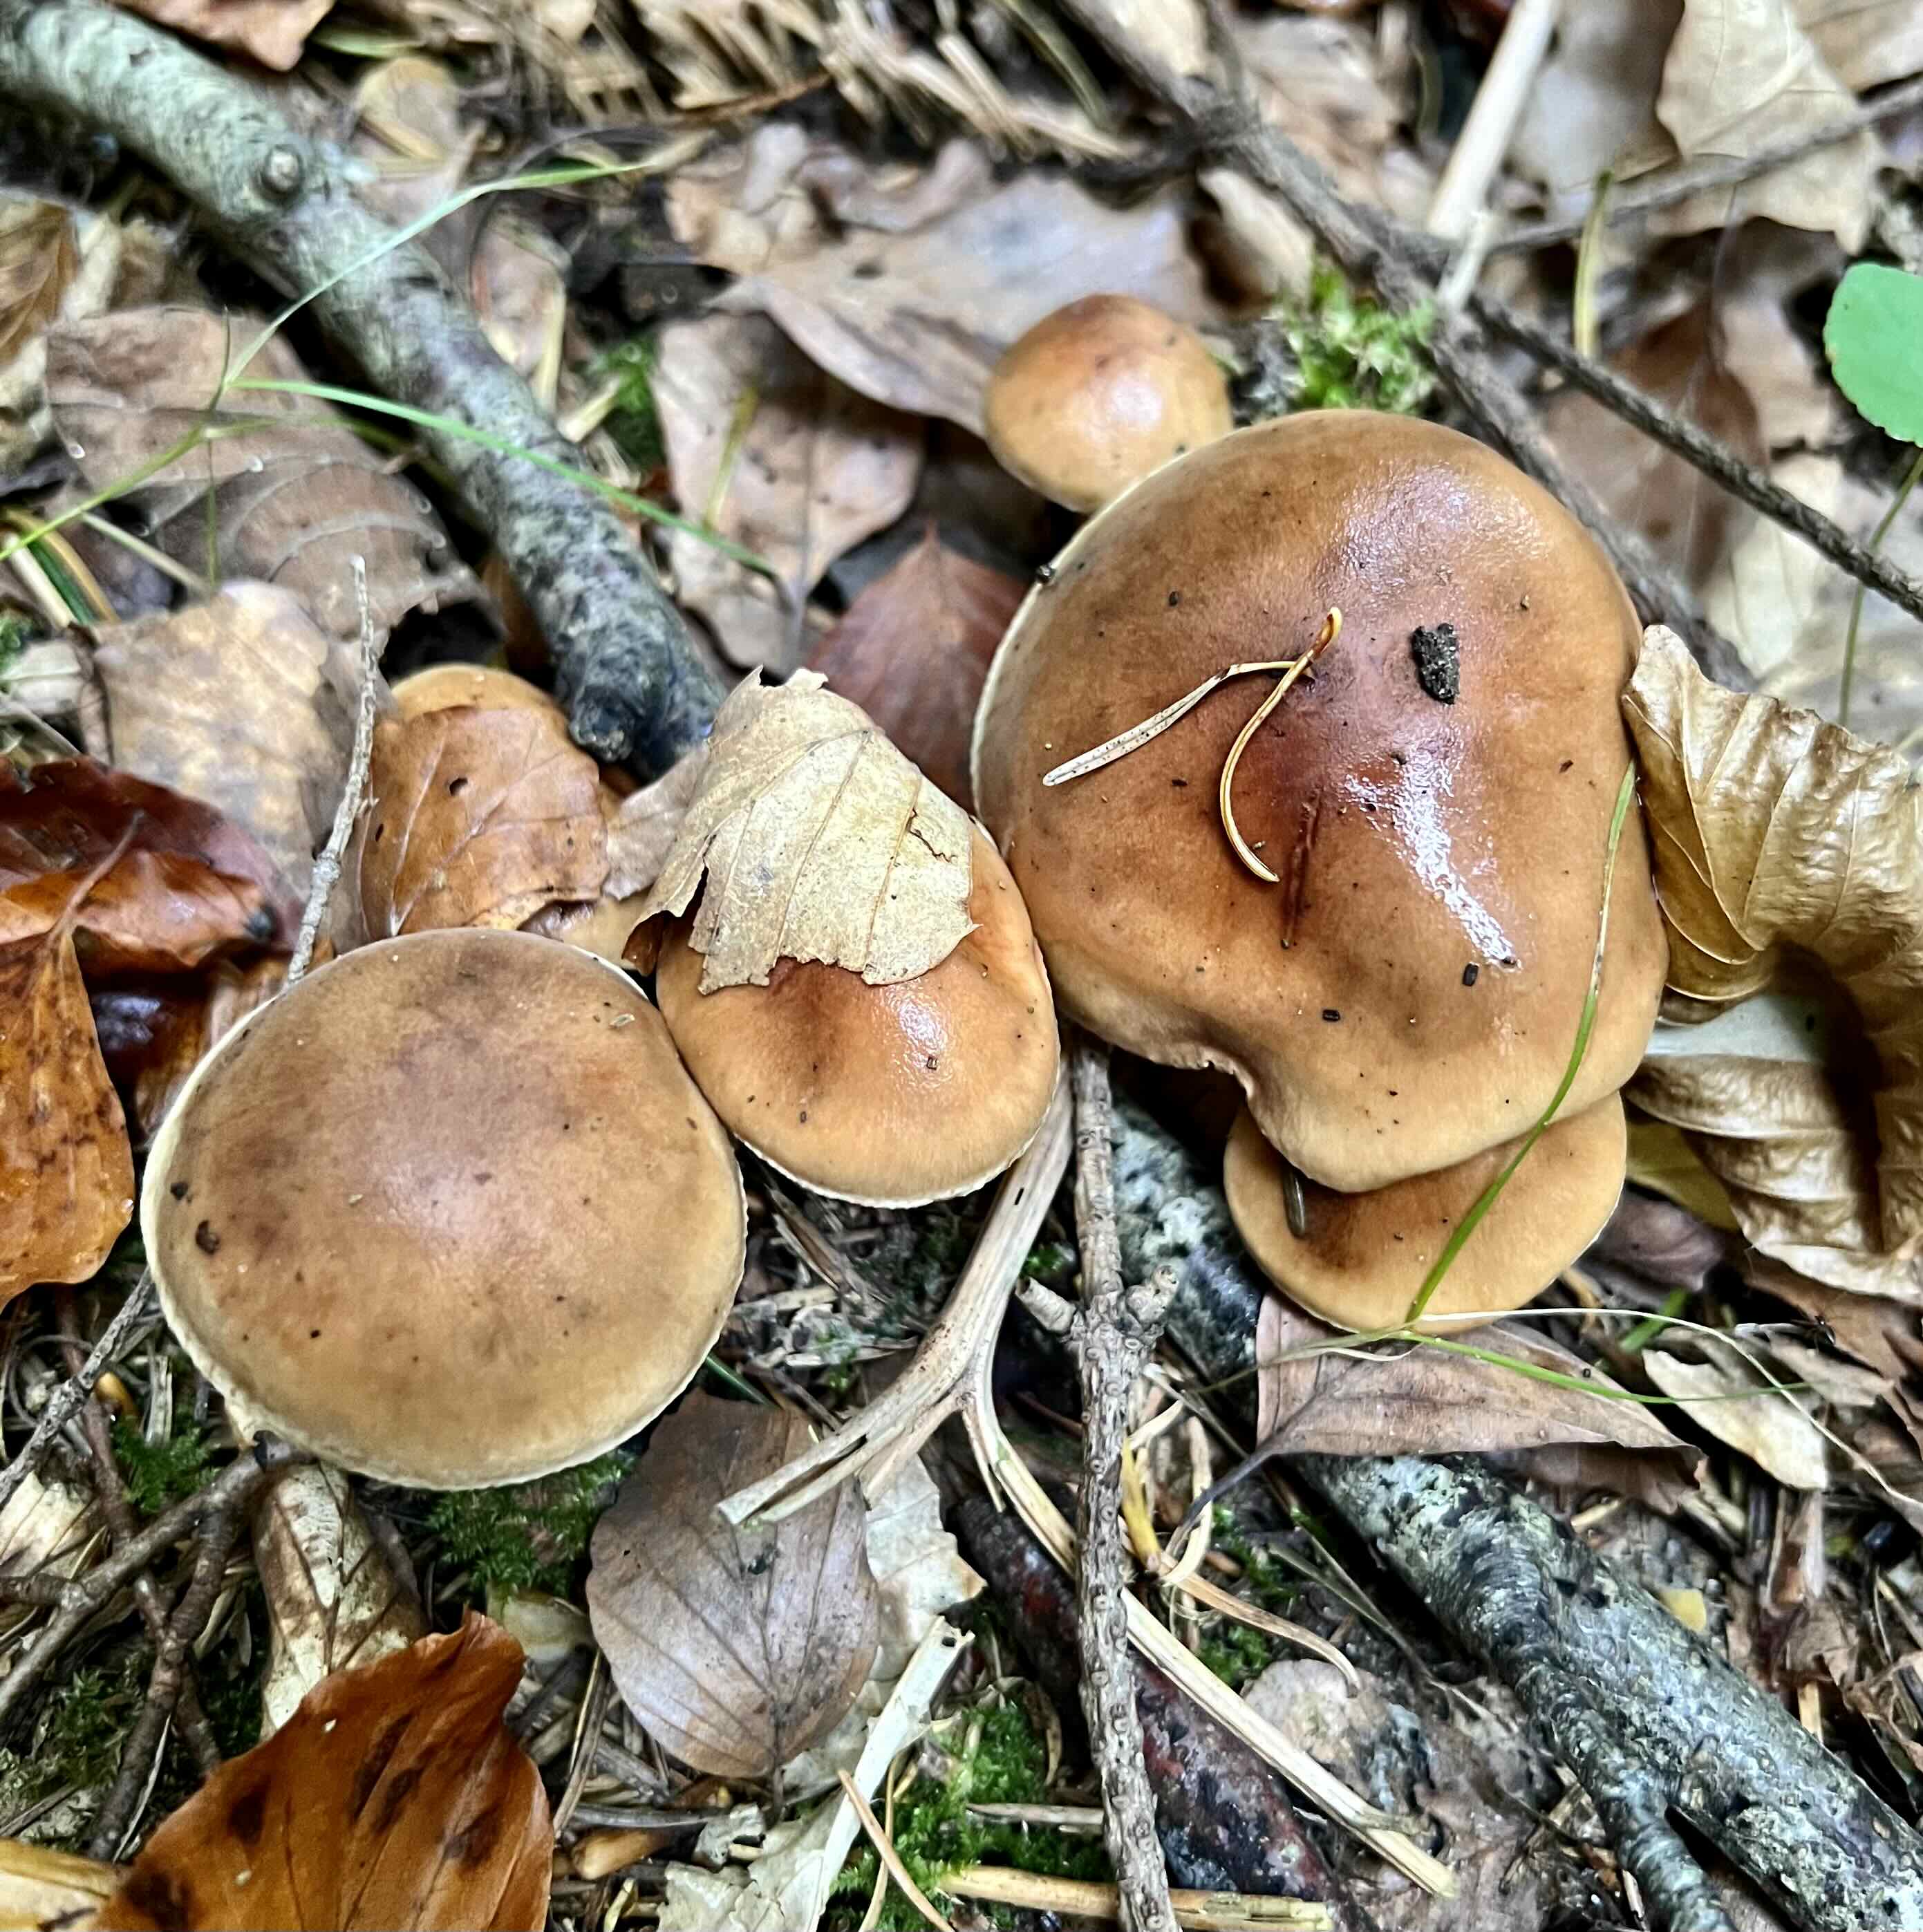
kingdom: Fungi
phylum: Basidiomycota
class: Agaricomycetes
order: Agaricales
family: Tricholomataceae
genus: Tricholoma
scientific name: Tricholoma ustale
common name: sveden ridderhat
